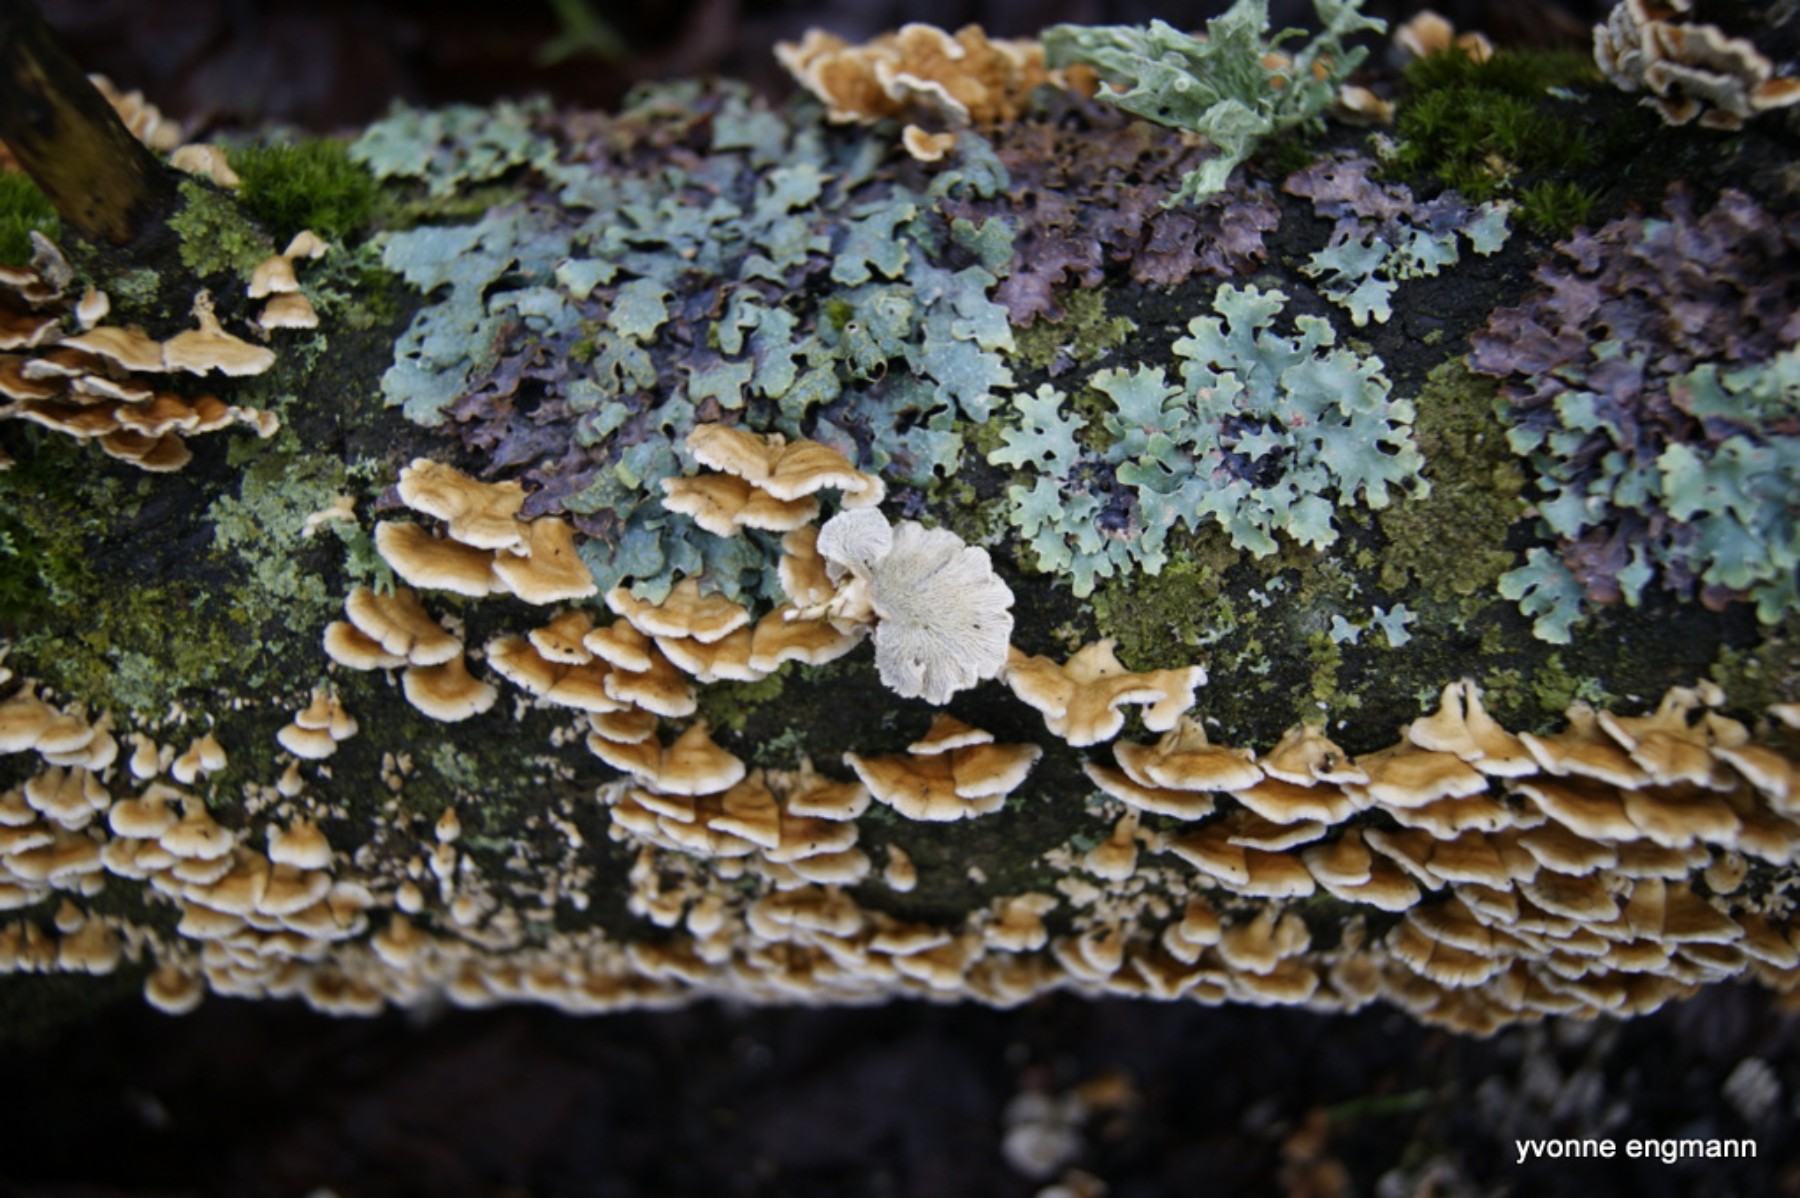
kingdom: Fungi
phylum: Basidiomycota
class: Agaricomycetes
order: Amylocorticiales
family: Amylocorticiaceae
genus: Plicaturopsis
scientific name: Plicaturopsis crispa
